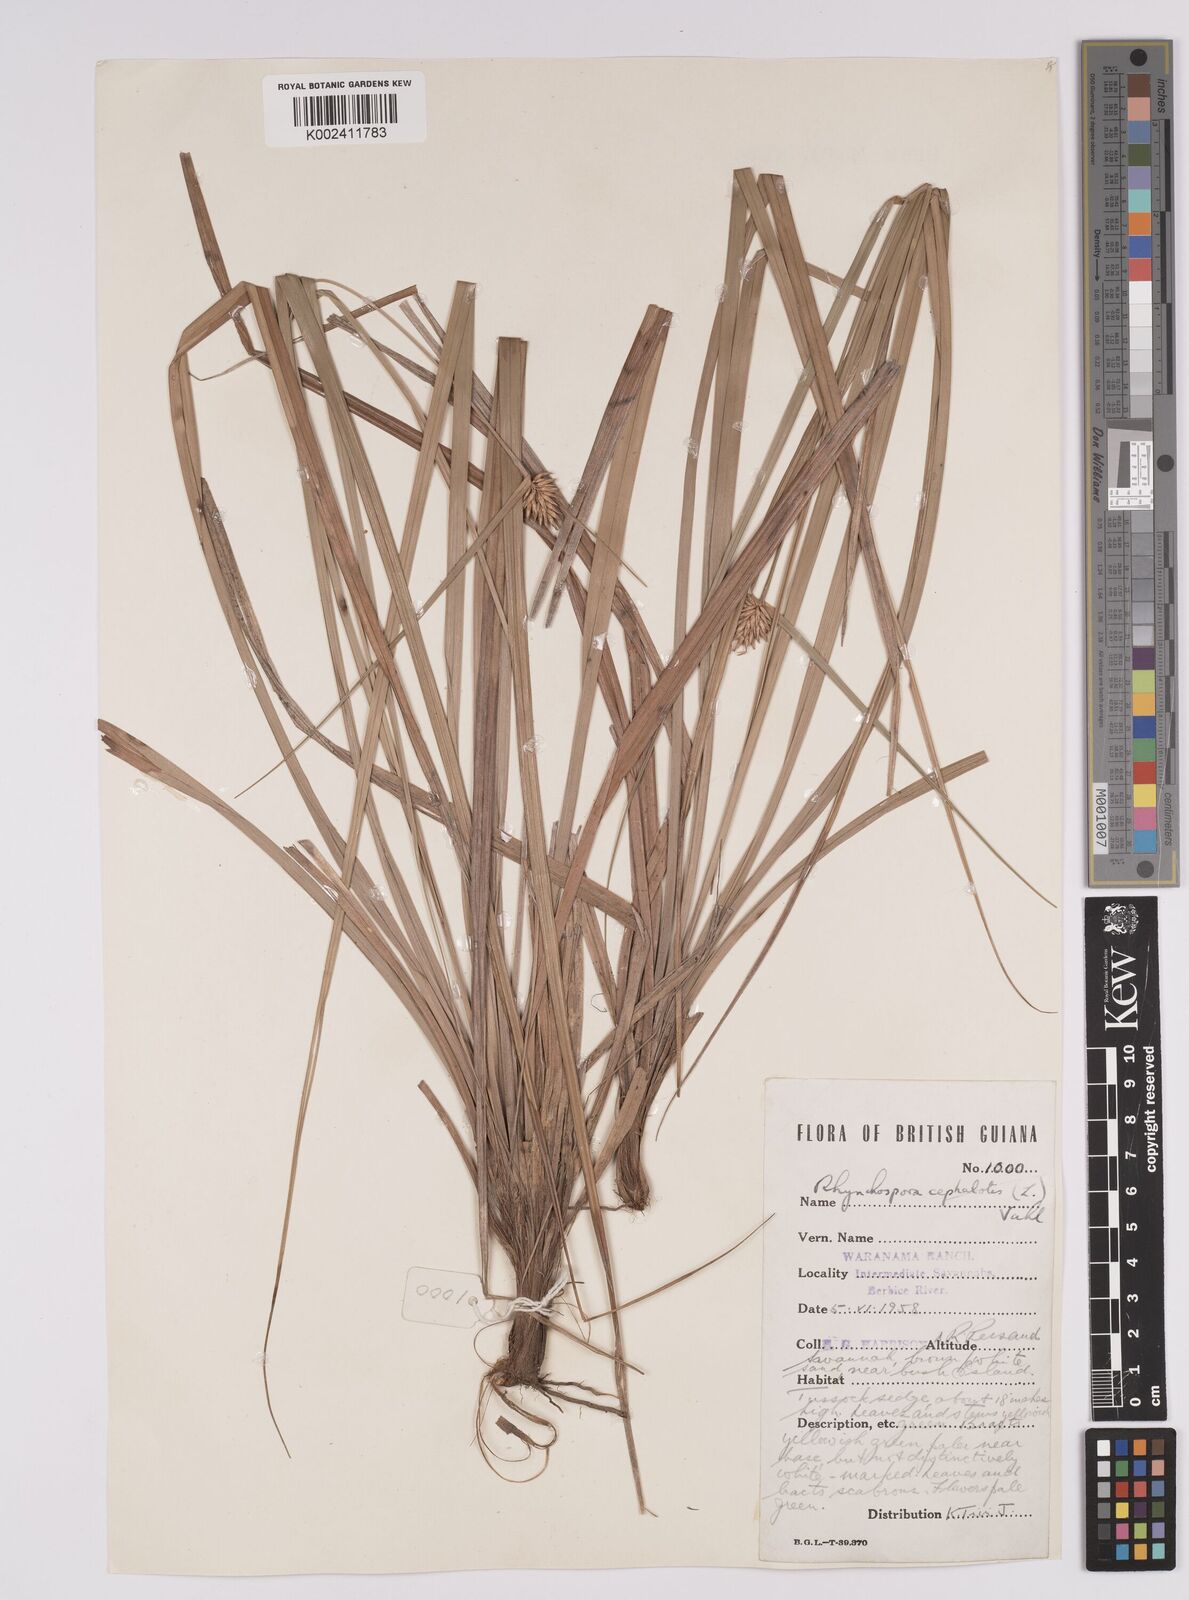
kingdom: Plantae
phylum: Tracheophyta
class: Liliopsida
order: Poales
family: Cyperaceae
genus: Rhynchospora
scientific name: Rhynchospora cephalotes
